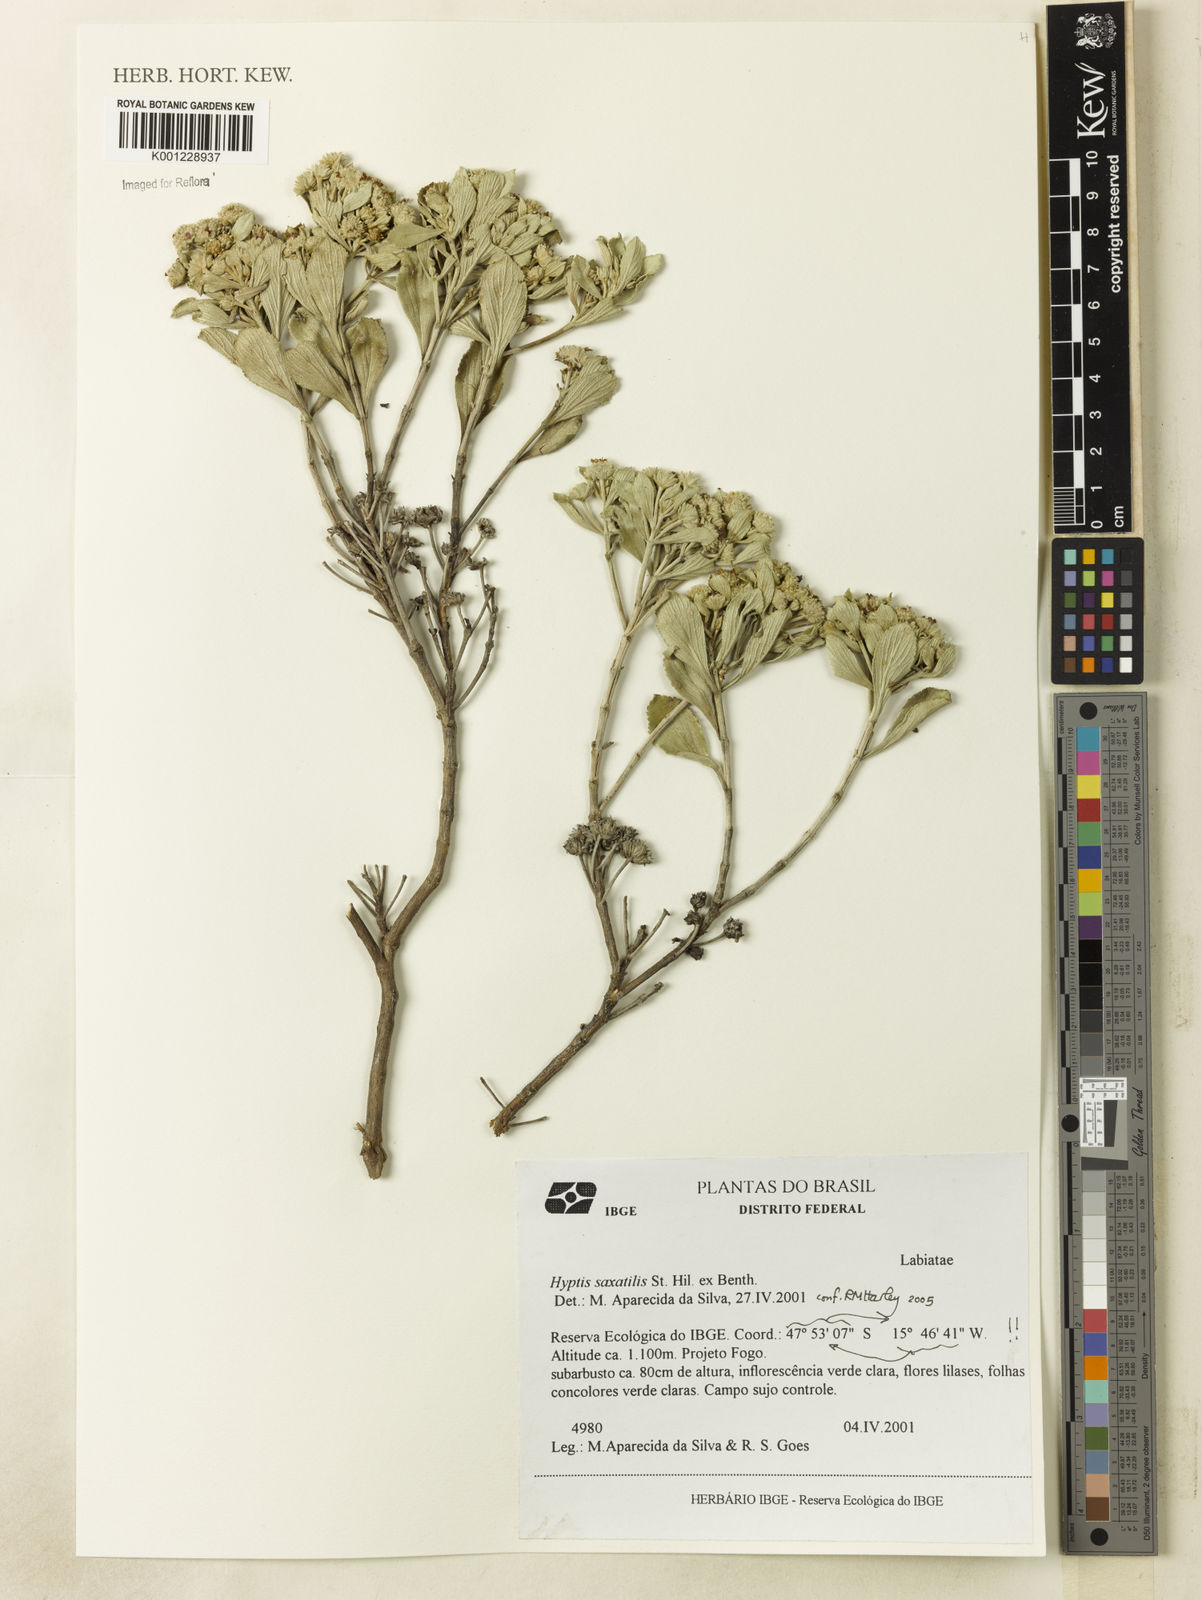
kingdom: Plantae
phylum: Tracheophyta
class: Magnoliopsida
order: Lamiales
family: Lamiaceae
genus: Hyptis
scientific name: Hyptis saxatilis
